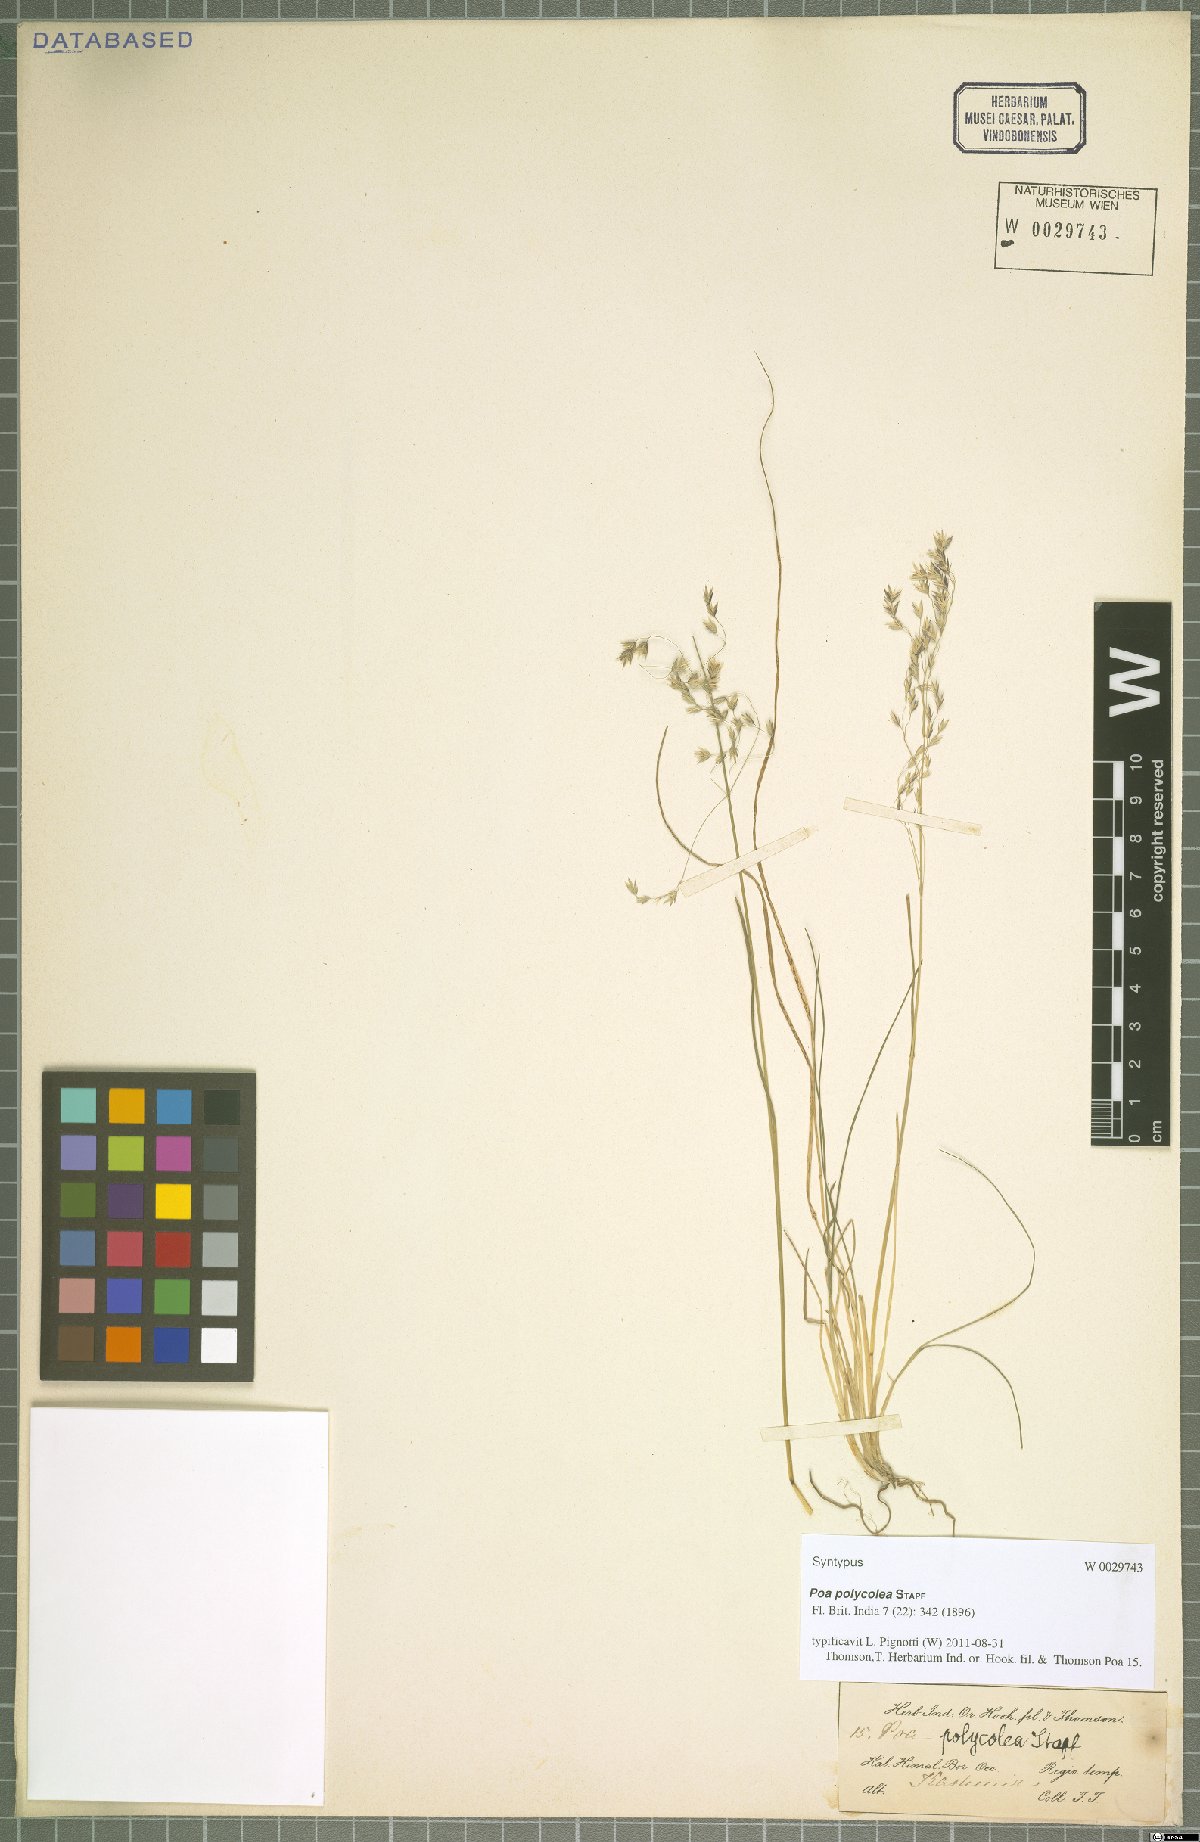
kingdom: Plantae
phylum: Tracheophyta
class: Liliopsida
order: Poales
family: Poaceae
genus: Poa
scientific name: Poa polycolea
